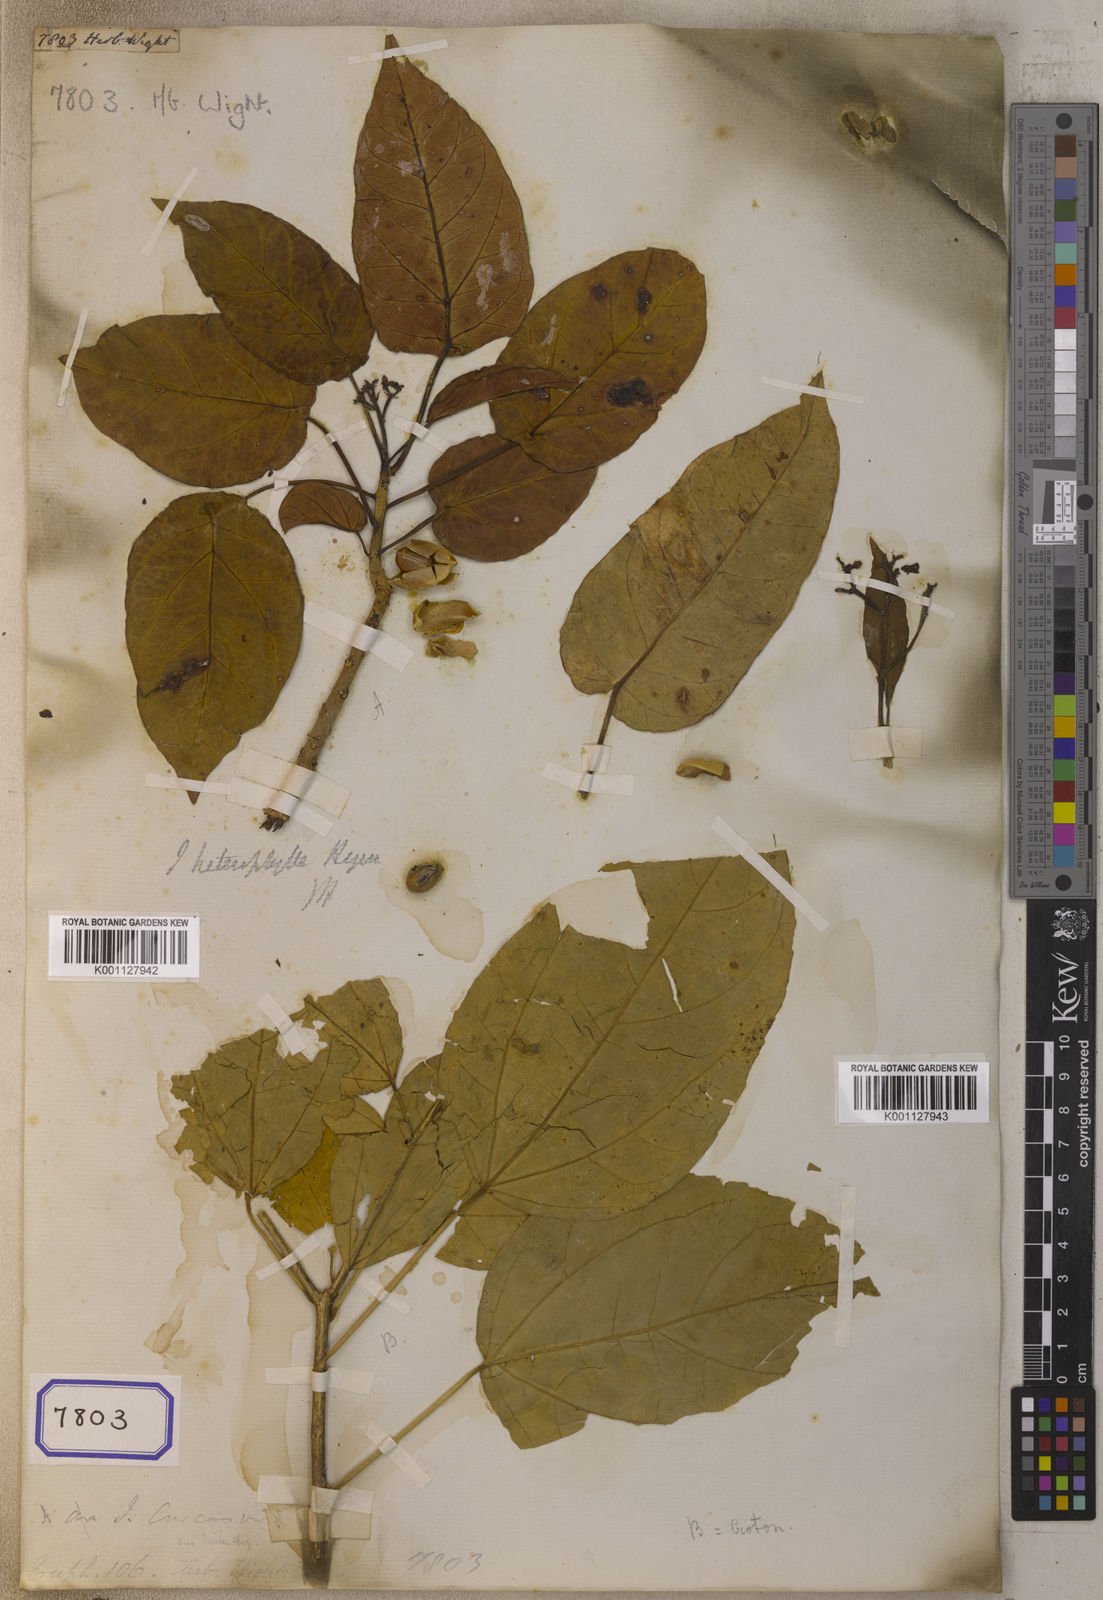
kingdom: Plantae
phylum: Tracheophyta
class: Magnoliopsida
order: Malpighiales
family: Euphorbiaceae
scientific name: Euphorbiaceae
